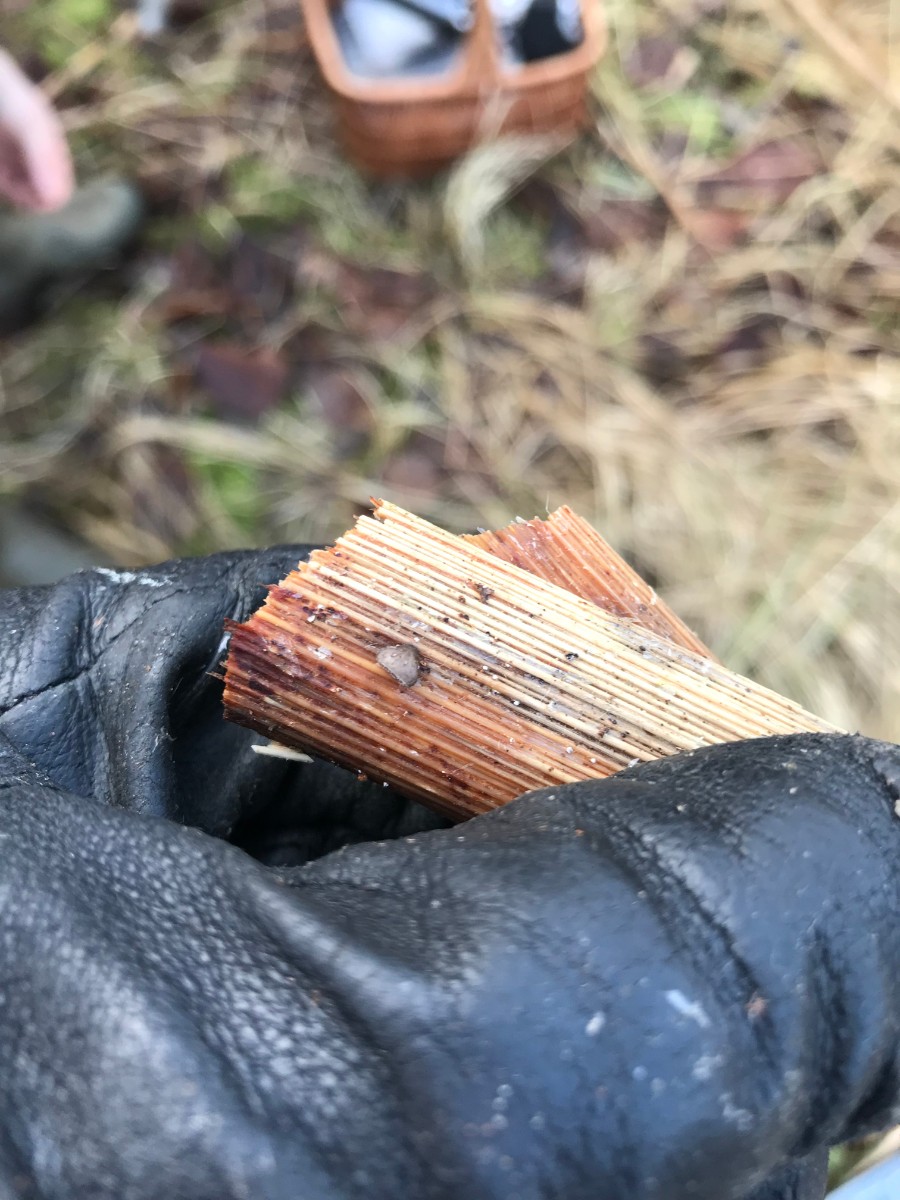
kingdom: Fungi
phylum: Basidiomycota
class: Agaricomycetes
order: Agaricales
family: Pleurotaceae
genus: Hohenbuehelia
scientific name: Hohenbuehelia cyphelliformis
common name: urte-filthat
